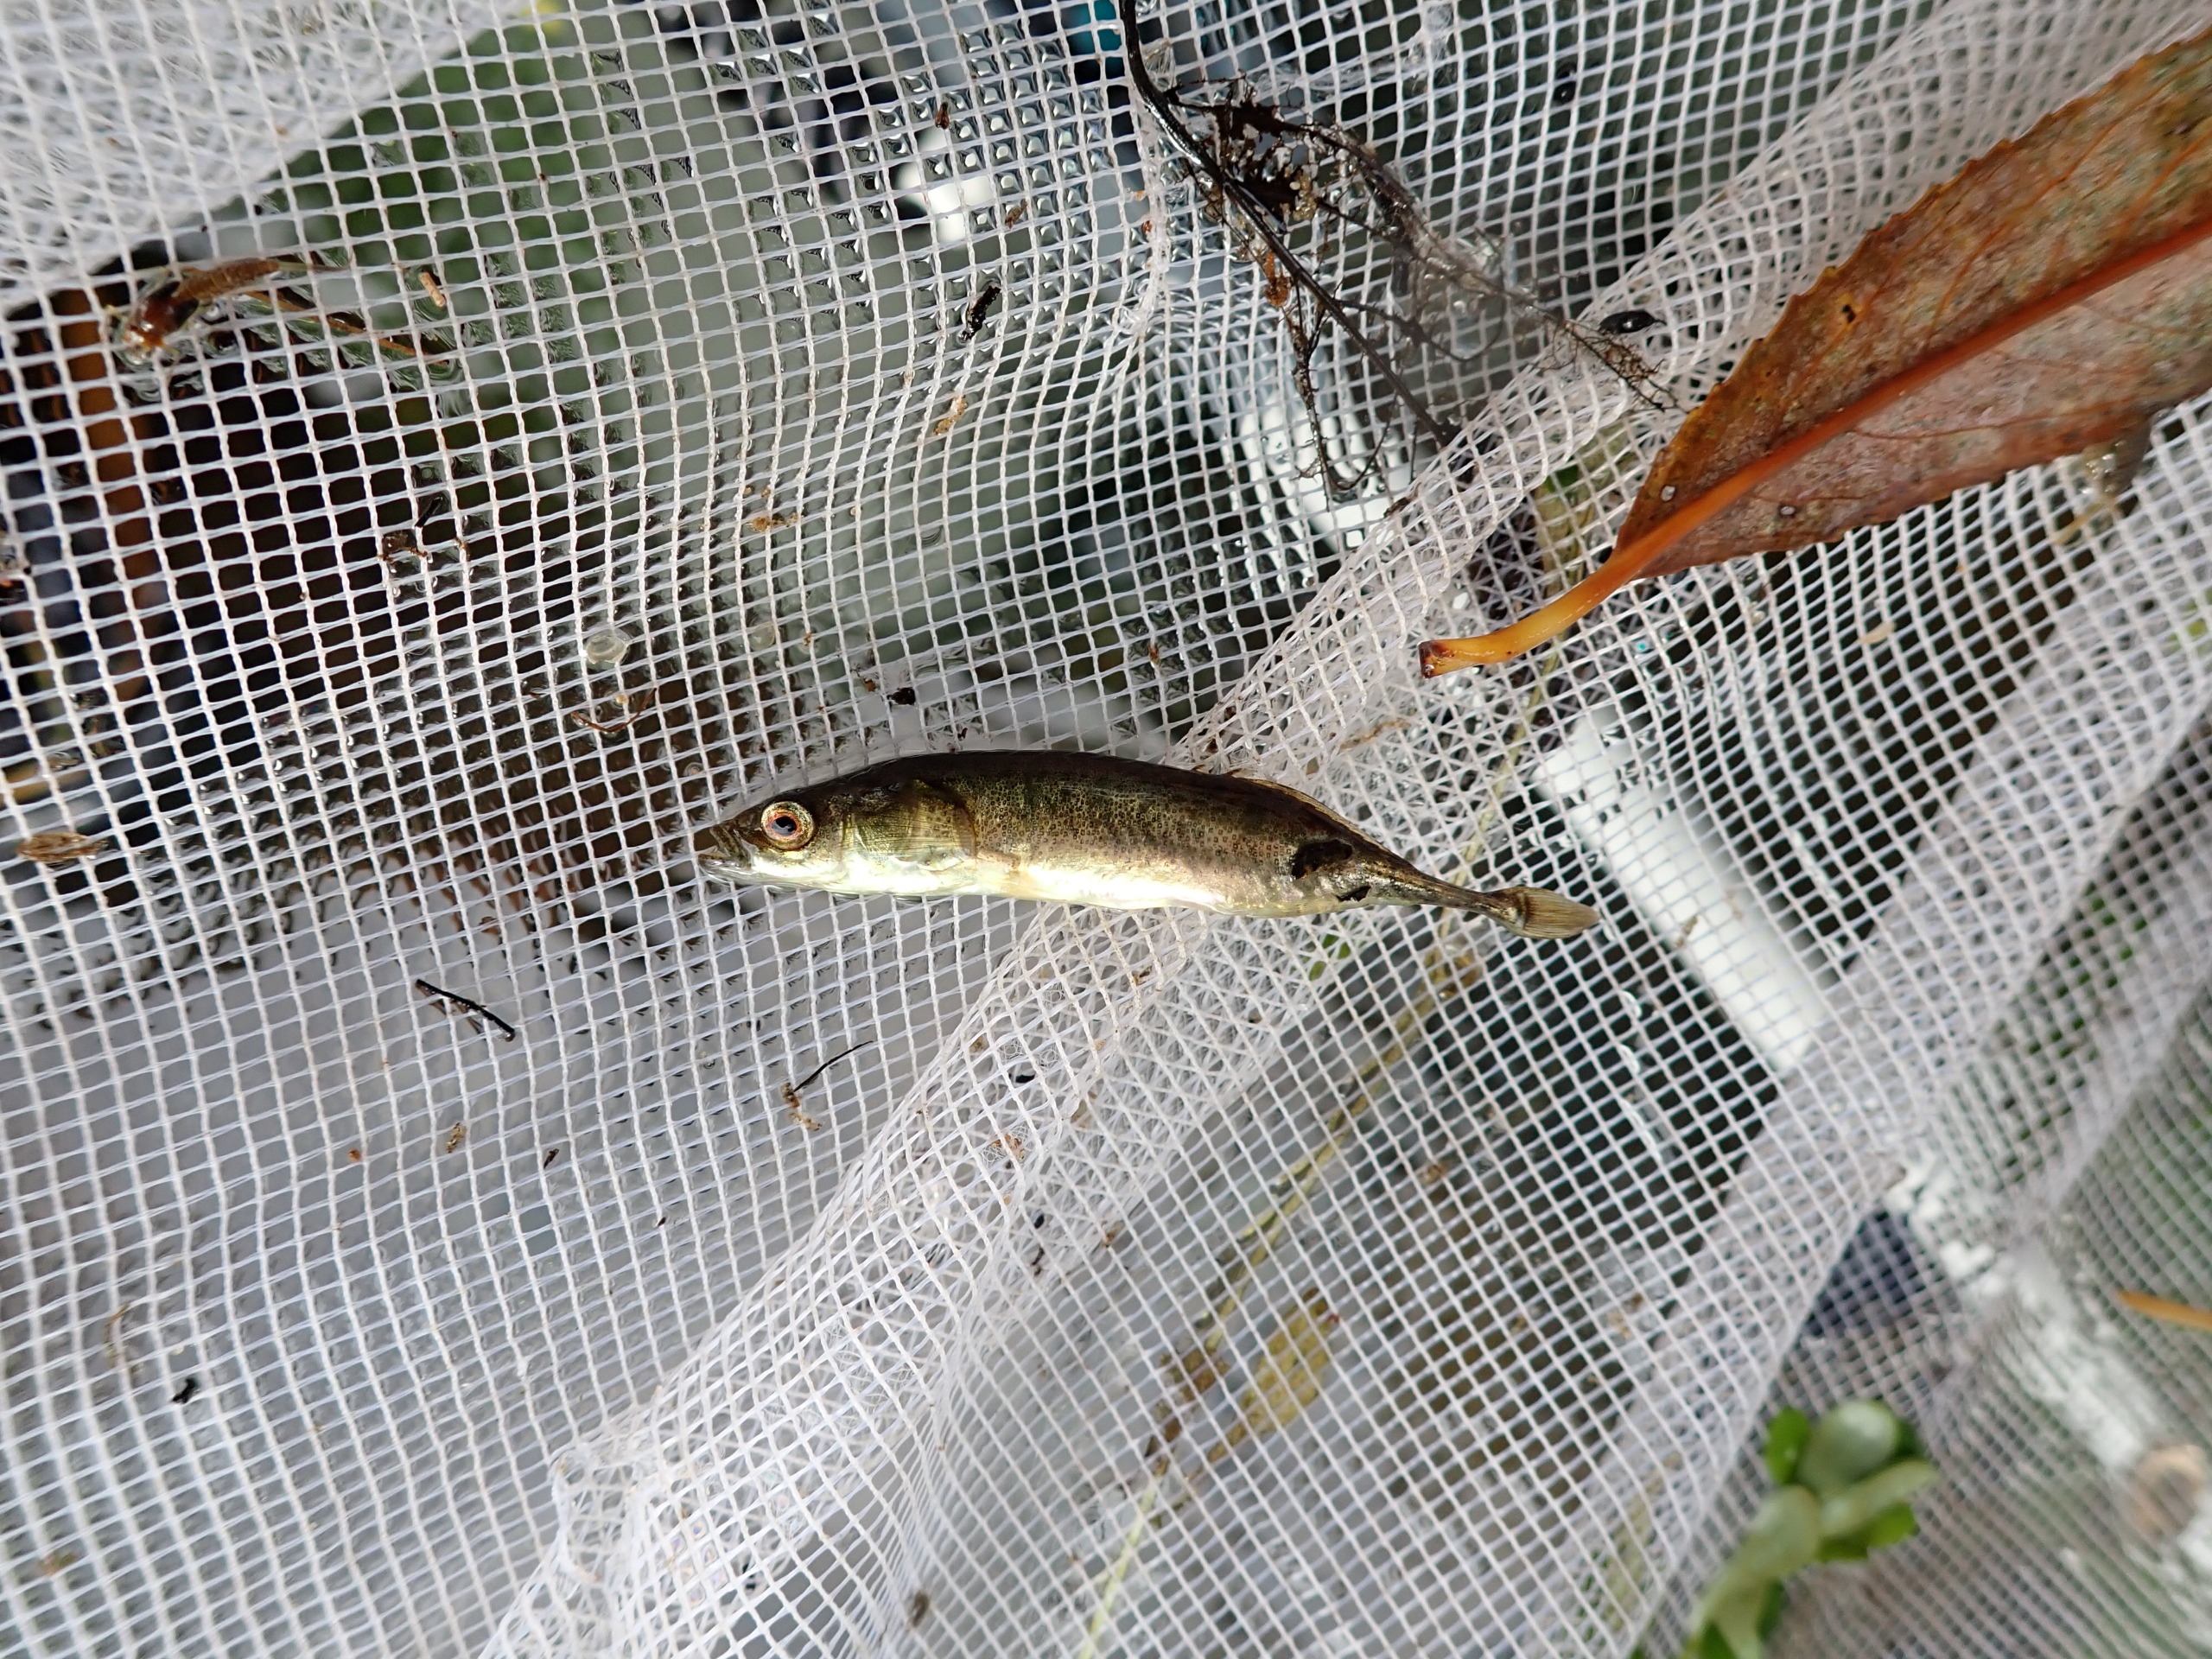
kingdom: Animalia
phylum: Chordata
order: Gasterosteiformes
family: Gasterosteidae
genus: Pungitius
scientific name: Pungitius pungitius
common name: Nipigget hundestejle
